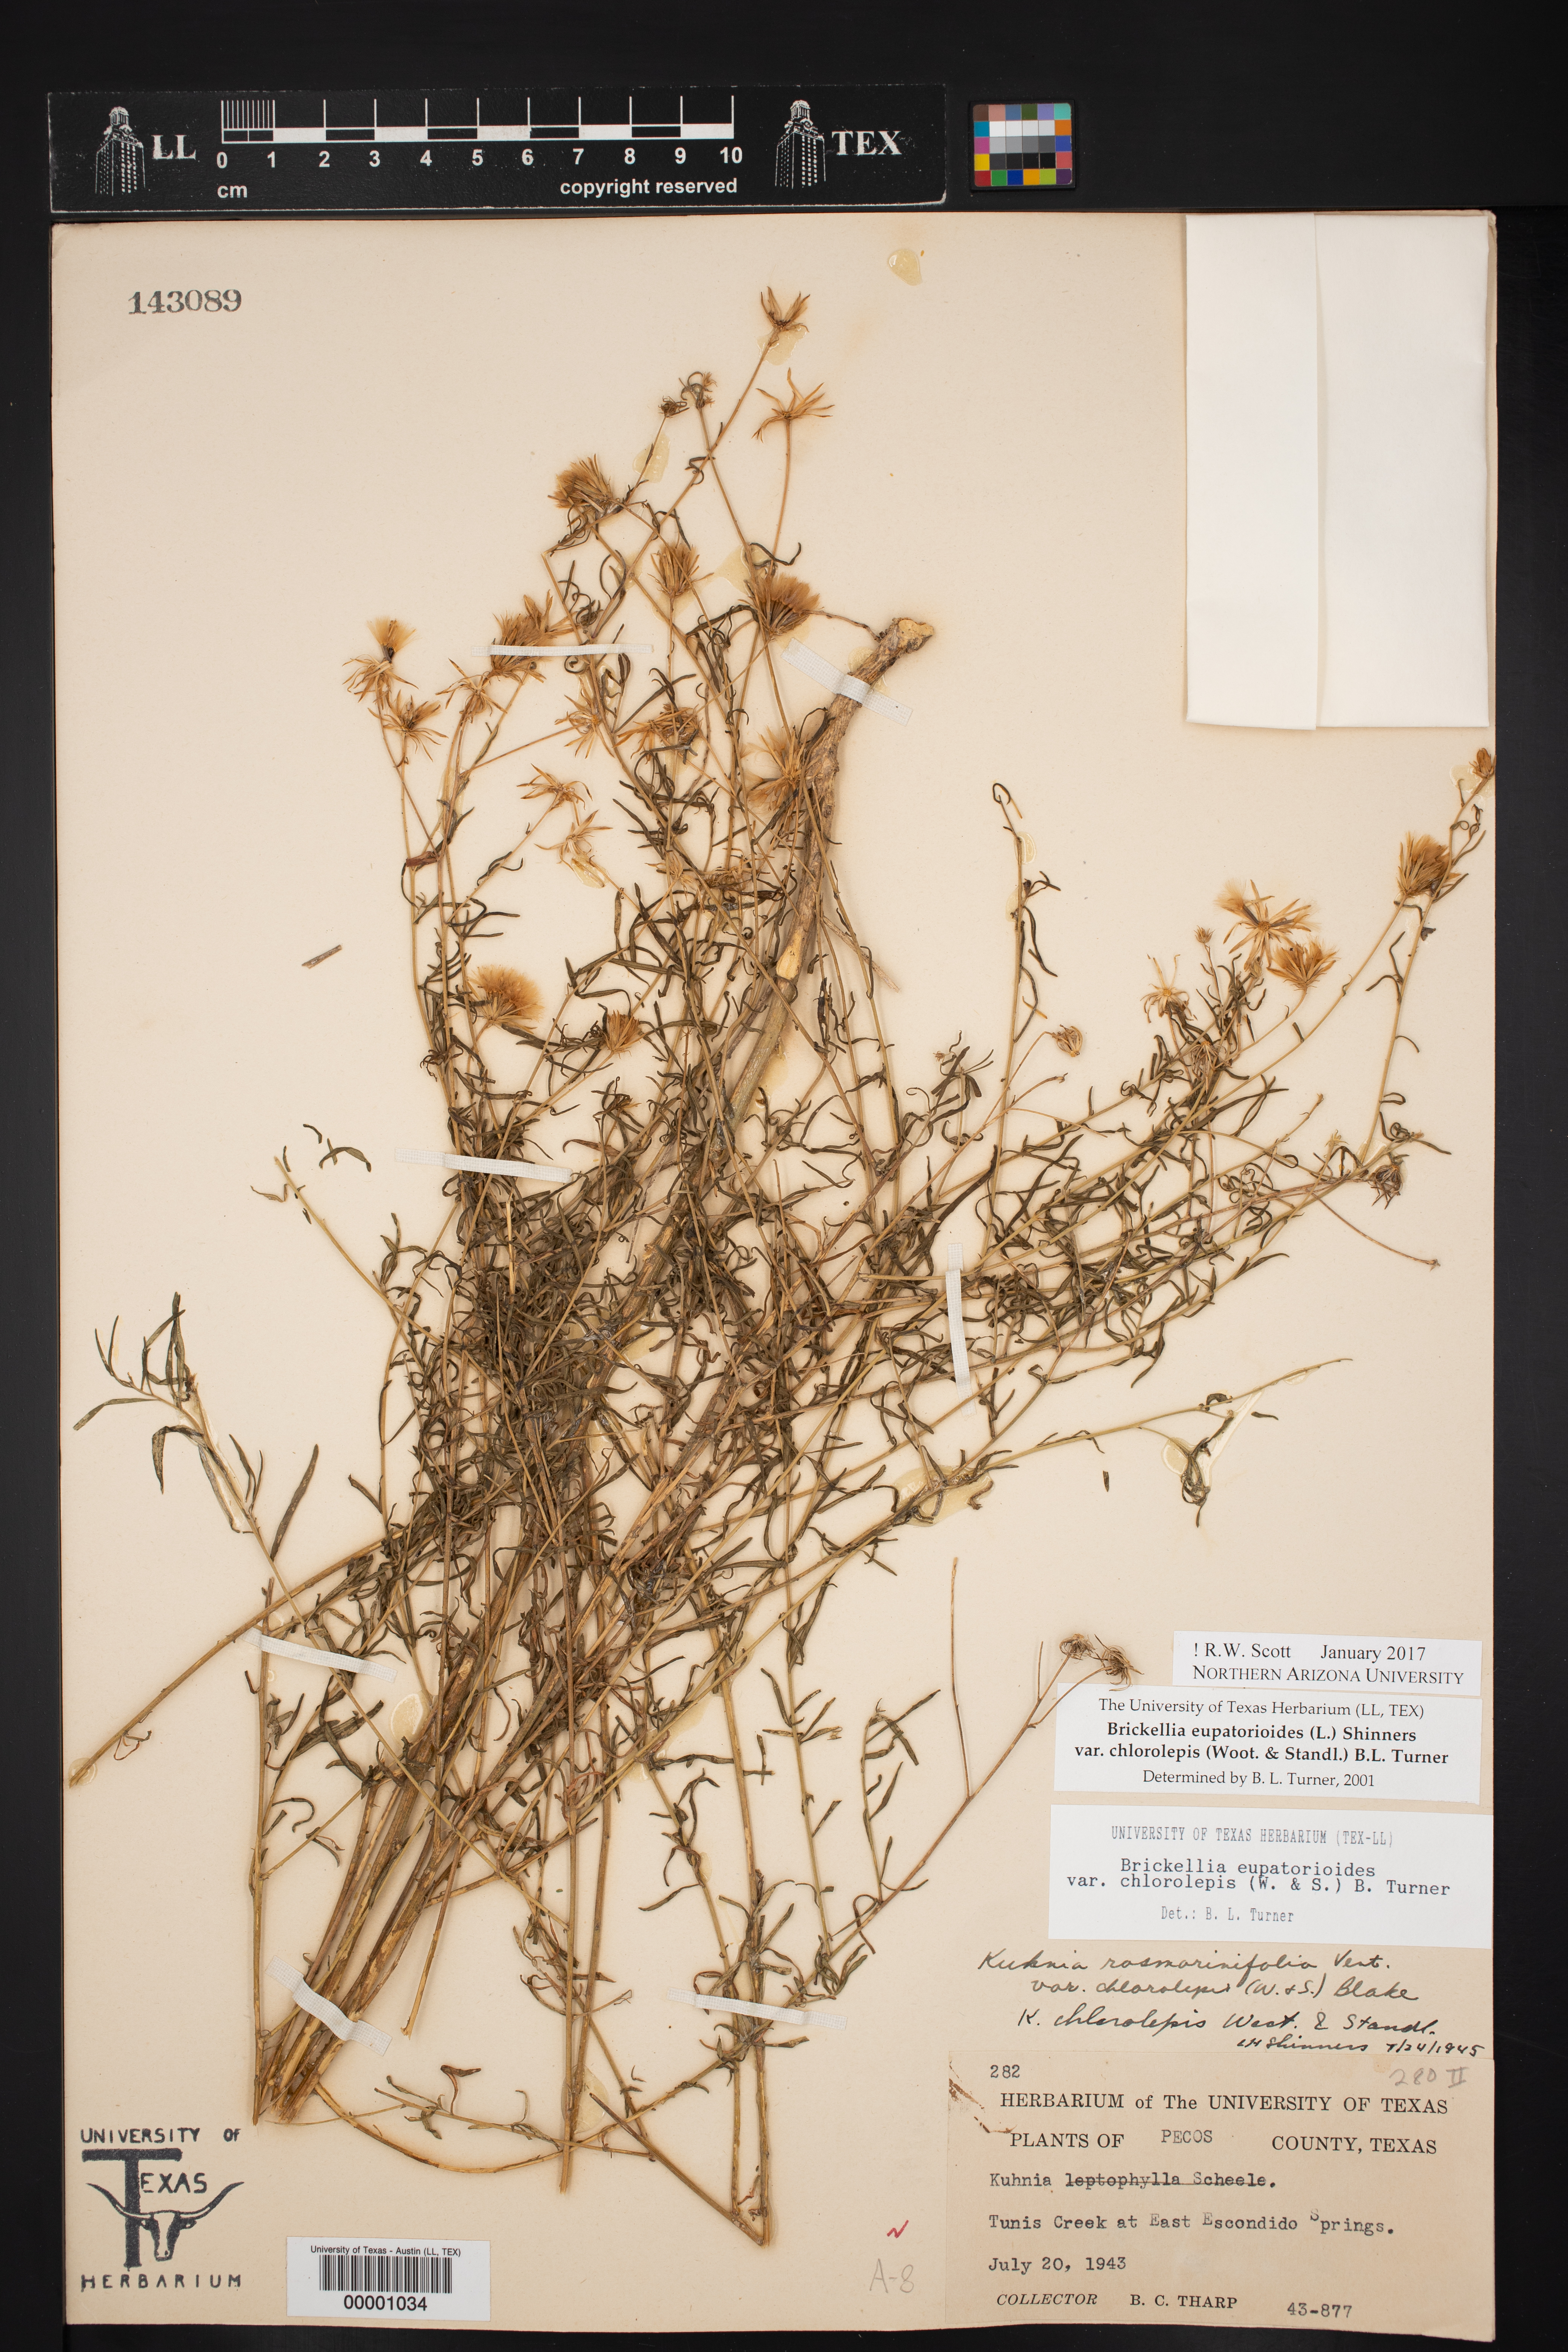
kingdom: Plantae
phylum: Tracheophyta
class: Magnoliopsida
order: Asterales
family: Asteraceae
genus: Brickellia
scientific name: Brickellia leptophylla
